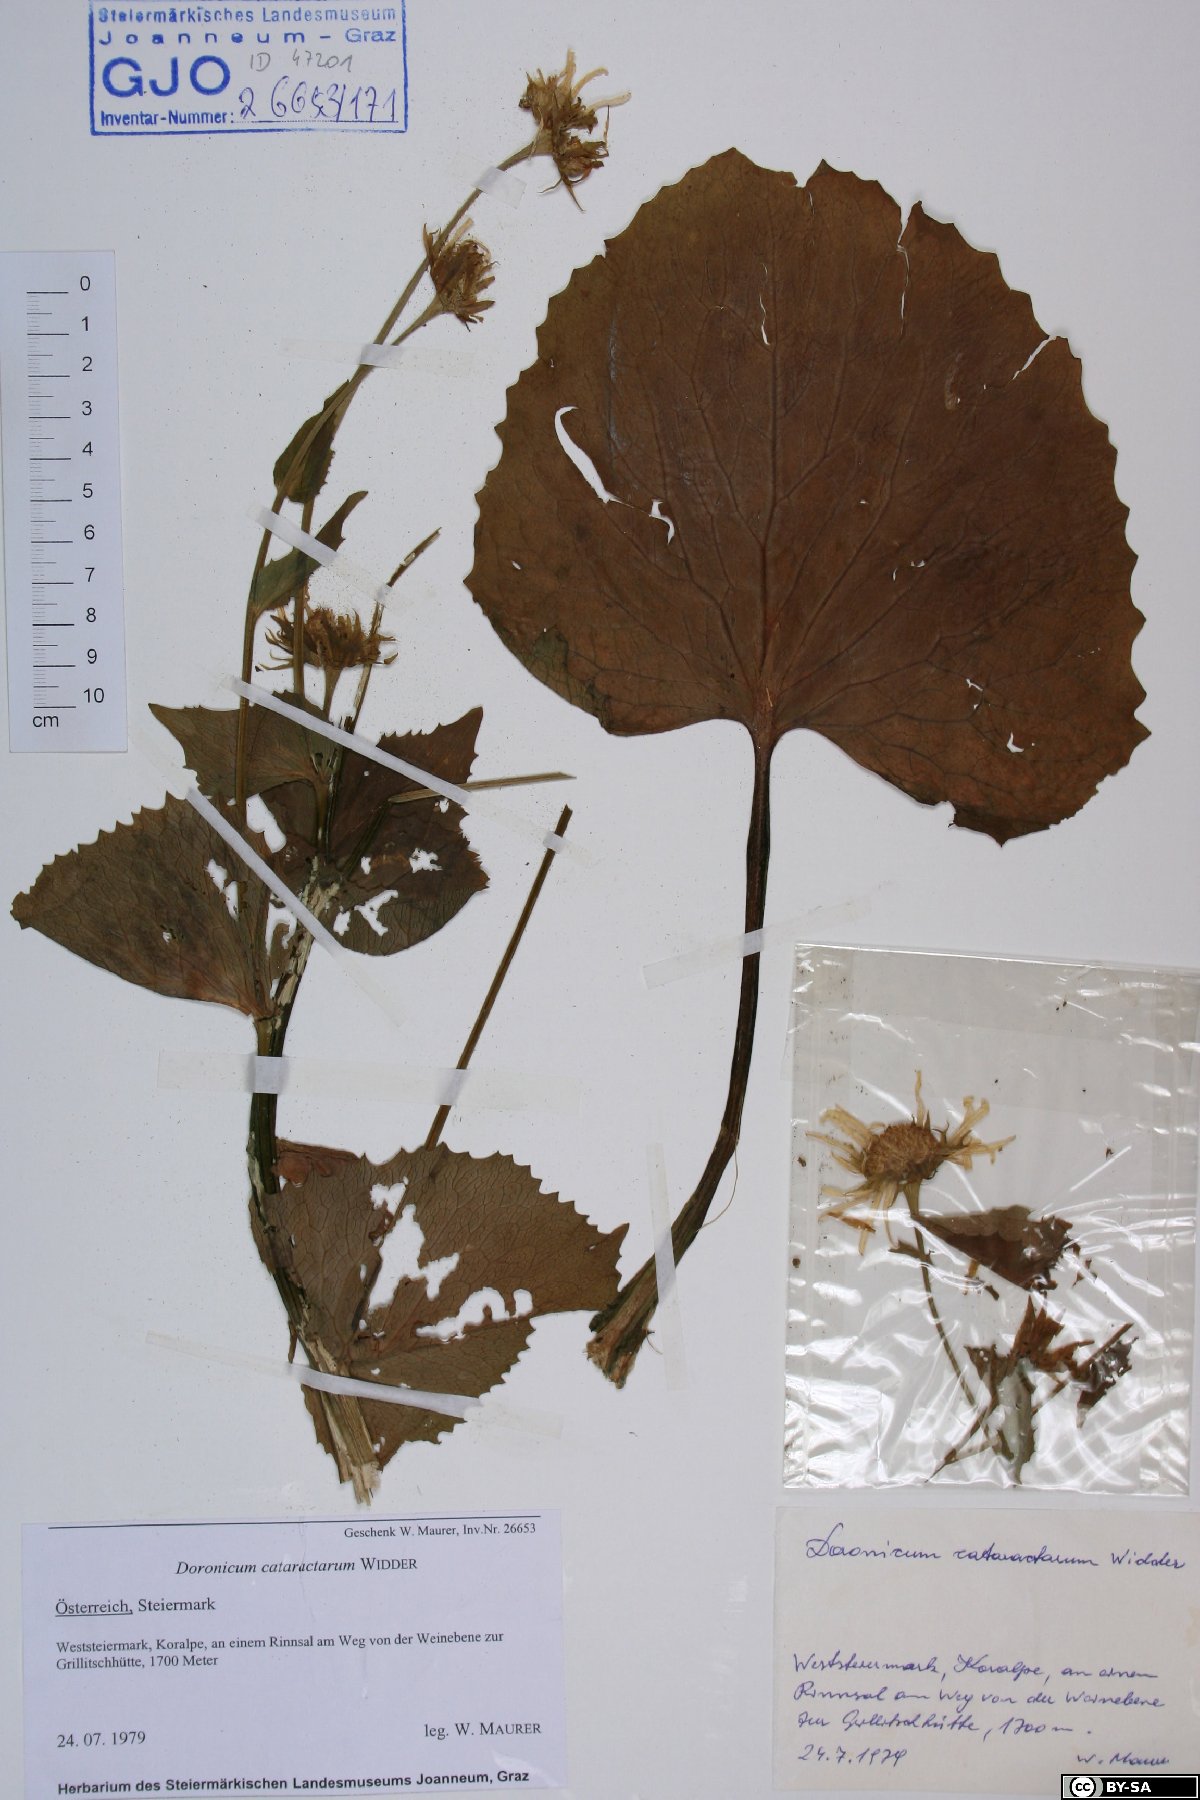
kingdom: Plantae
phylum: Tracheophyta
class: Magnoliopsida
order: Asterales
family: Asteraceae
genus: Doronicum
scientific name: Doronicum cataractarum
